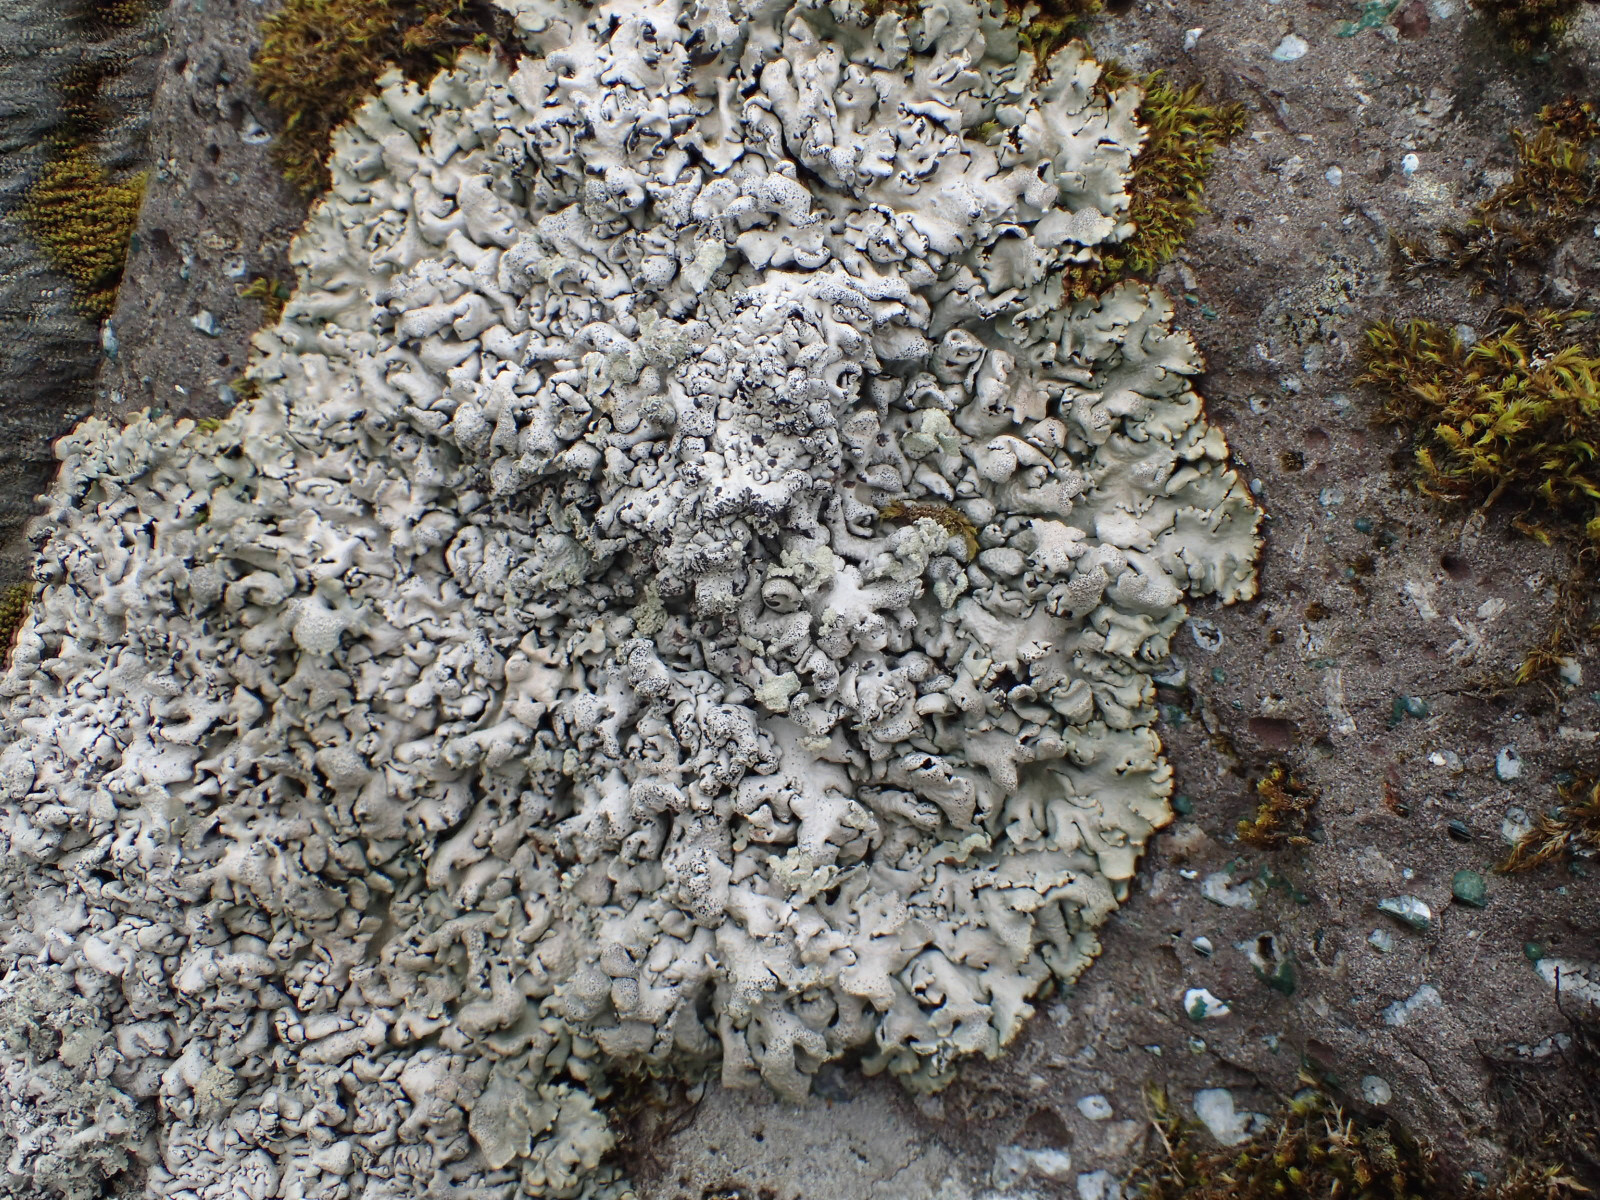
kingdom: Fungi
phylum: Ascomycota
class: Lecanoromycetes
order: Lecanorales
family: Parmeliaceae
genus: Hypogymnia
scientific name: Hypogymnia physodes
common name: almindelig kvistlav
